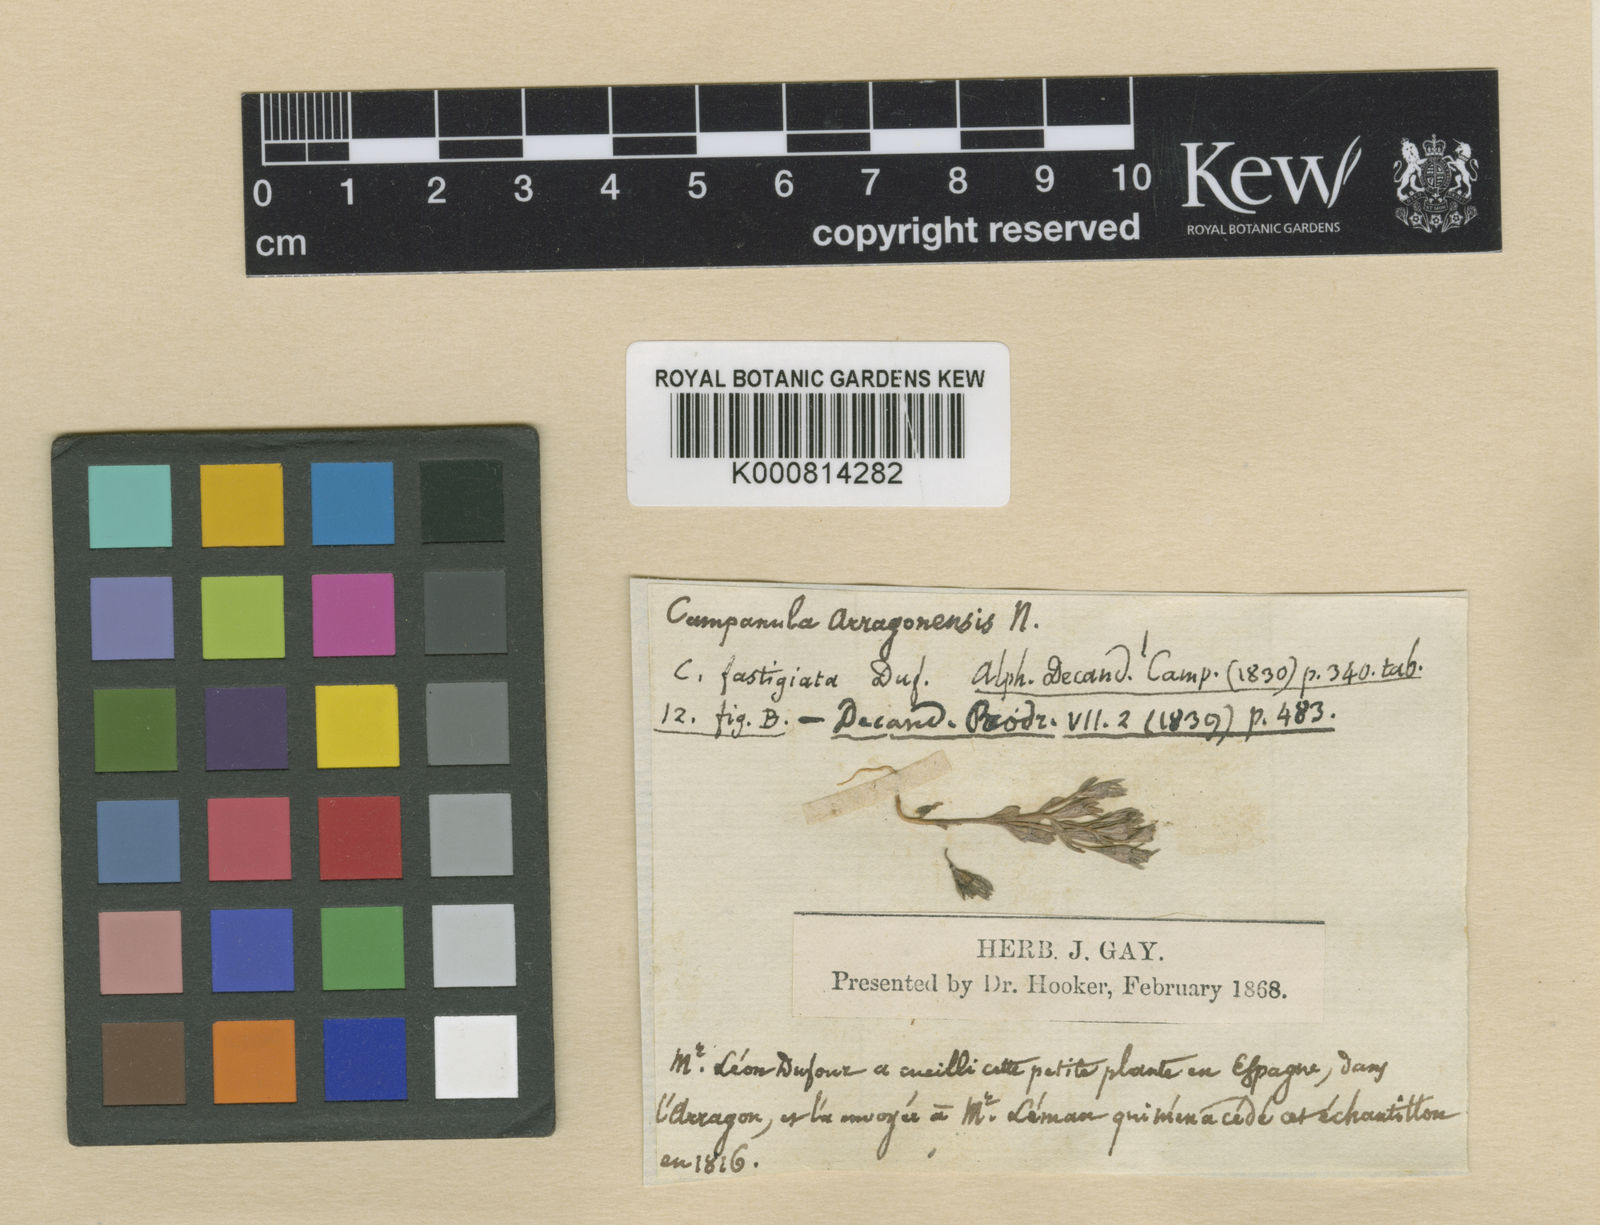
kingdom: Plantae
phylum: Tracheophyta
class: Magnoliopsida
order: Asterales
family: Campanulaceae
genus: Campanula
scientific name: Campanula fastigiata
